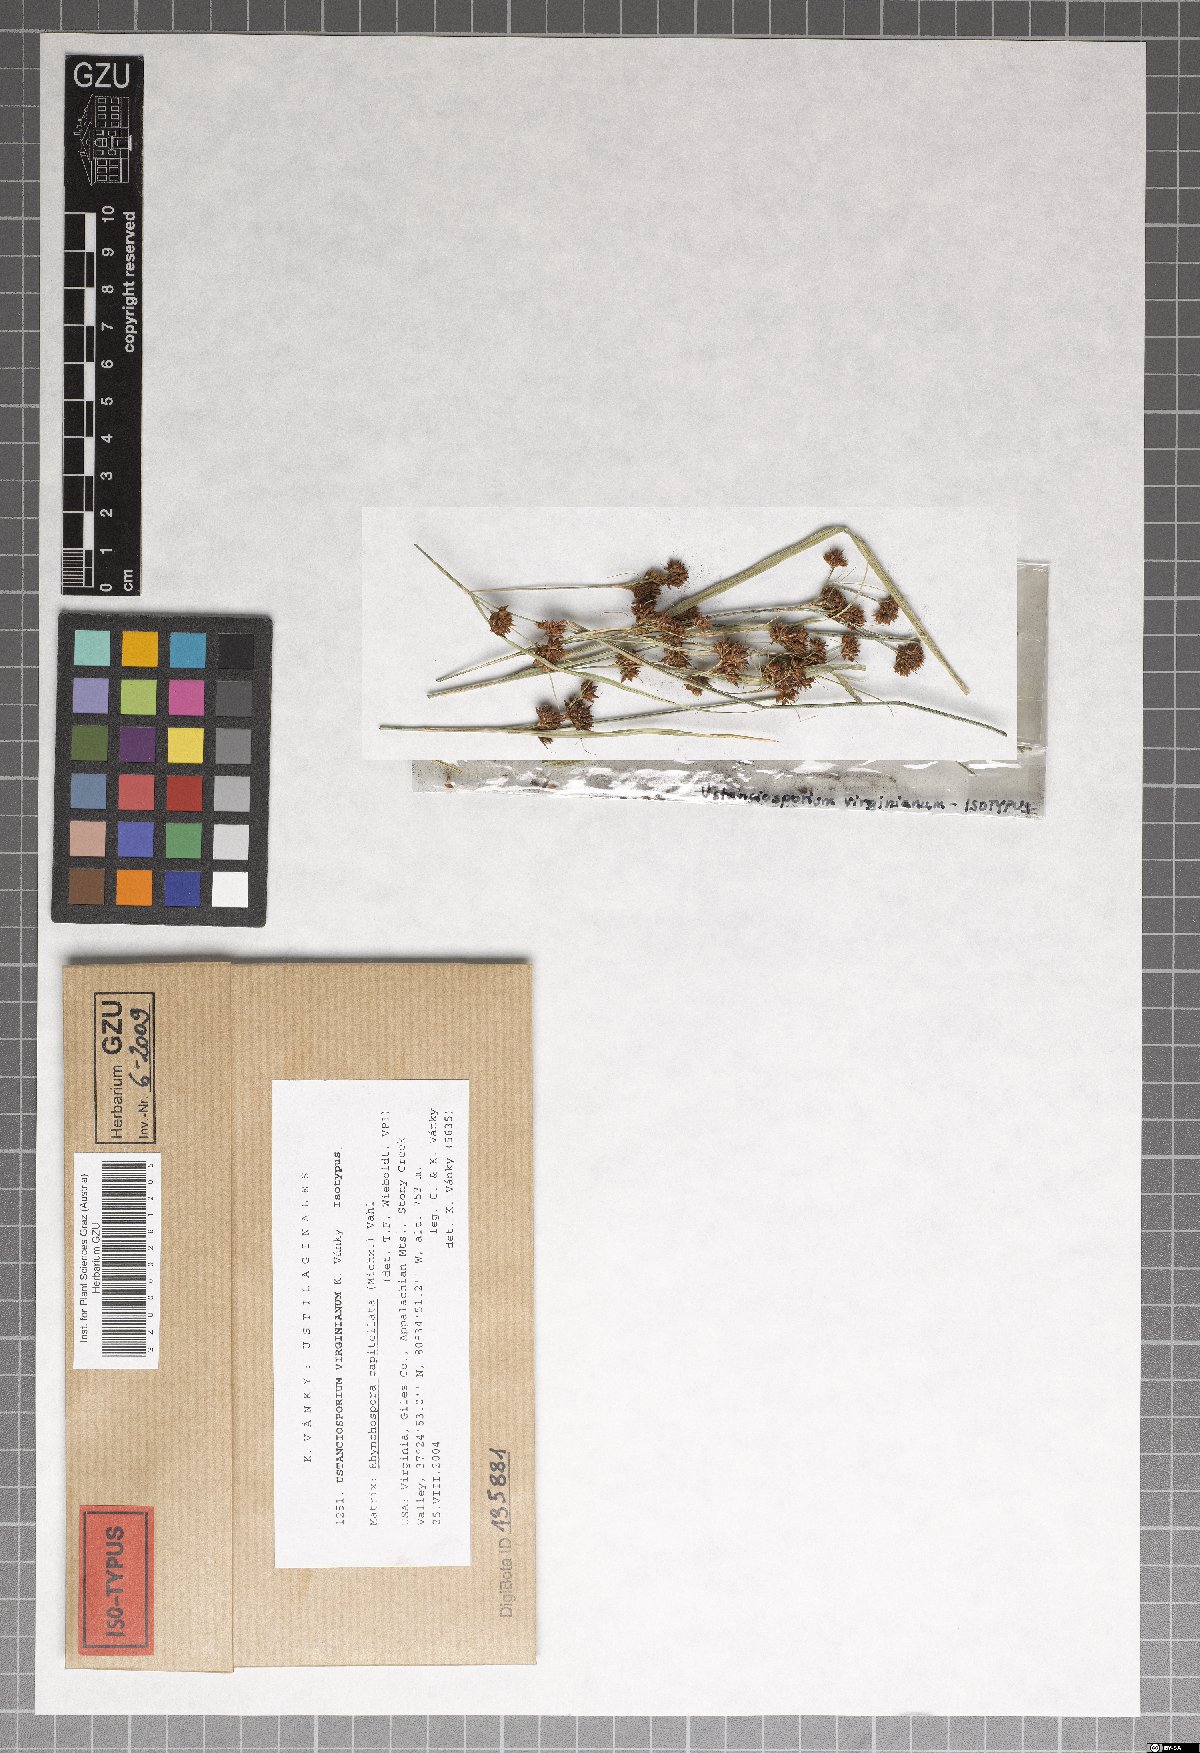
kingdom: Fungi
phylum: Basidiomycota
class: Ustilaginomycetes
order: Ustilaginales
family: Anthracoideaceae
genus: Ustanciosporium
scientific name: Ustanciosporium virginianum
